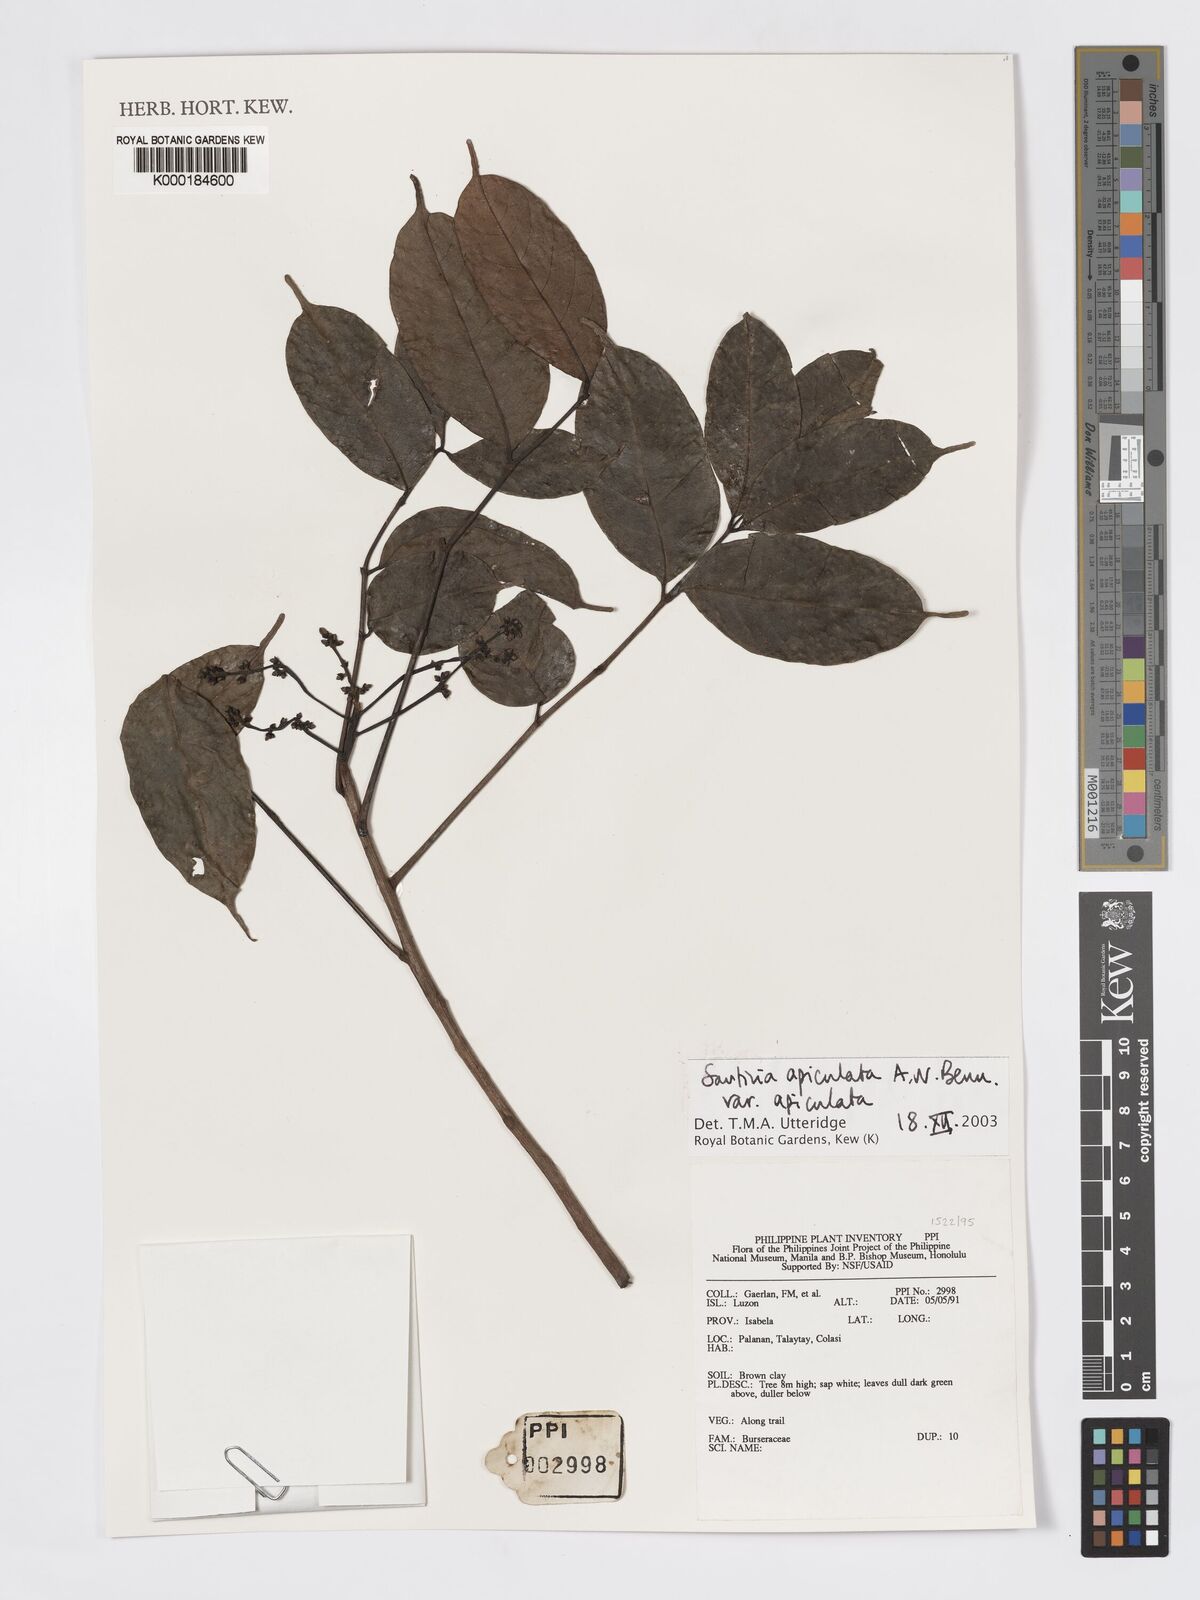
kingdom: Plantae
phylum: Tracheophyta
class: Magnoliopsida
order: Sapindales
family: Burseraceae
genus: Santiria
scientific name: Santiria apiculata
